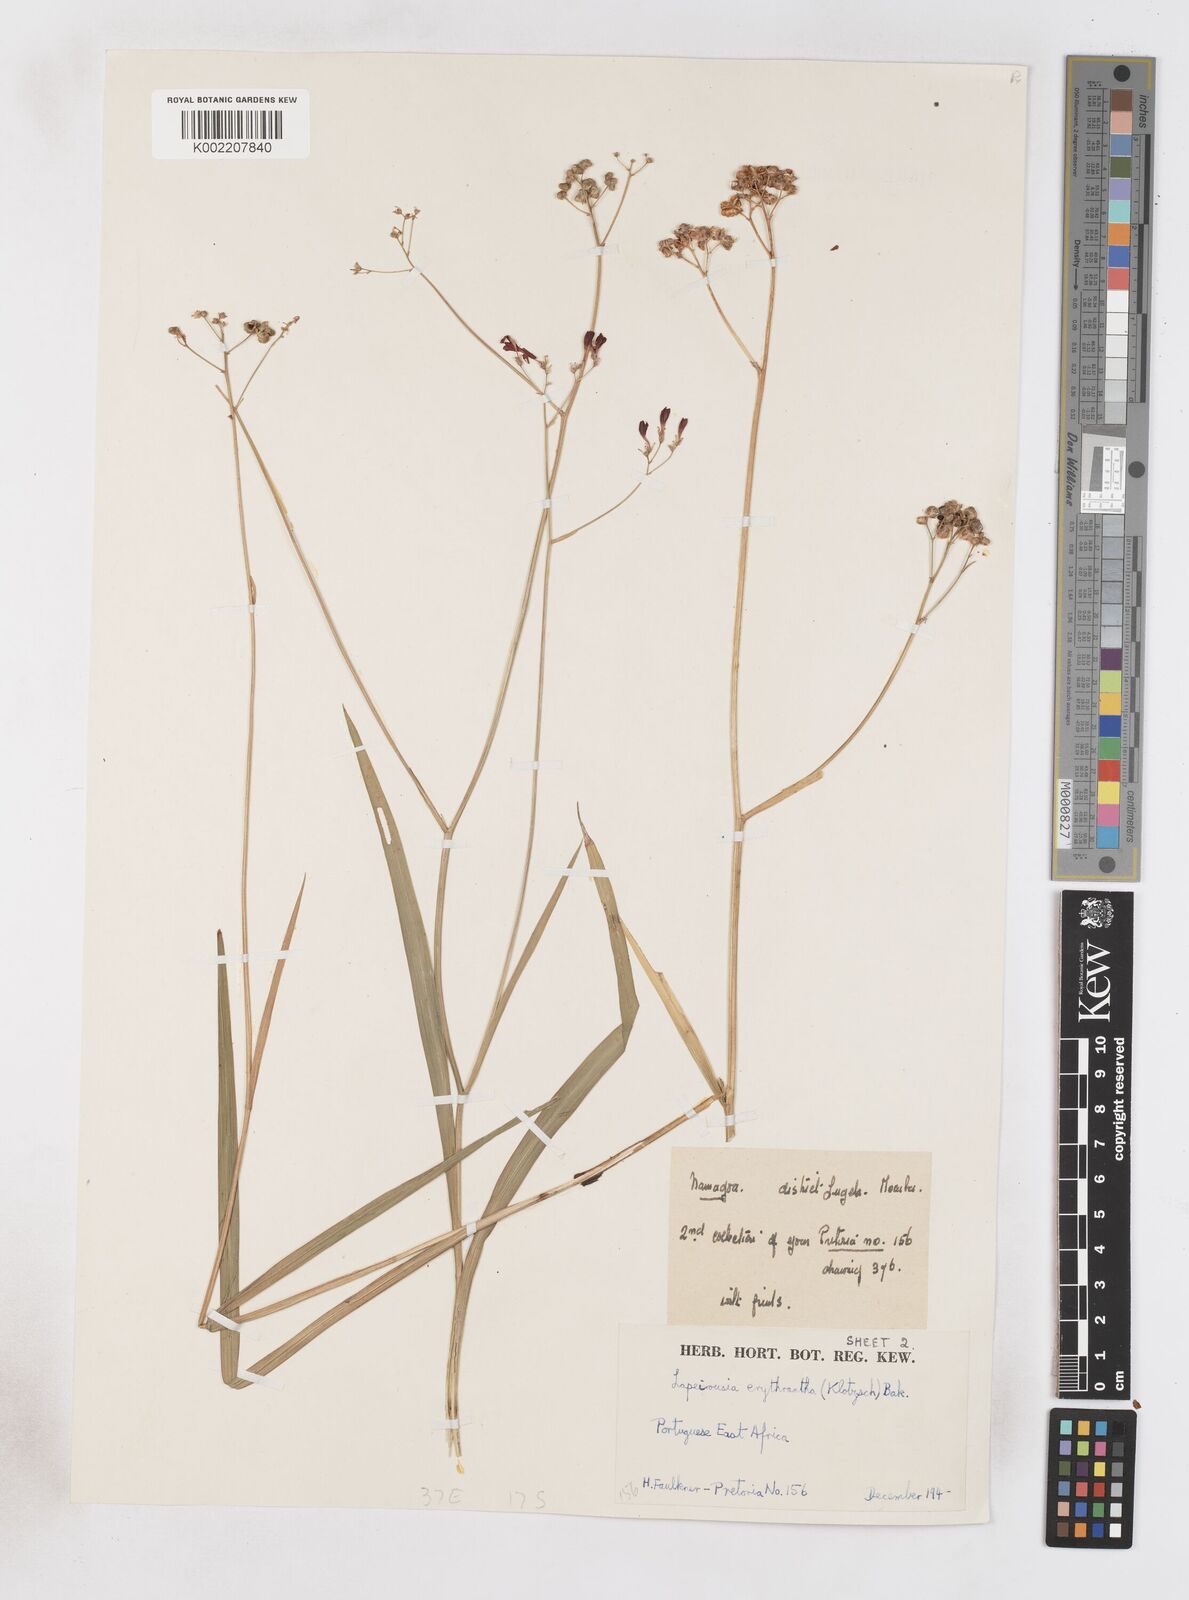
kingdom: Plantae
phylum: Tracheophyta
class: Liliopsida
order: Asparagales
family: Iridaceae
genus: Afrosolen
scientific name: Afrosolen erythranthus
